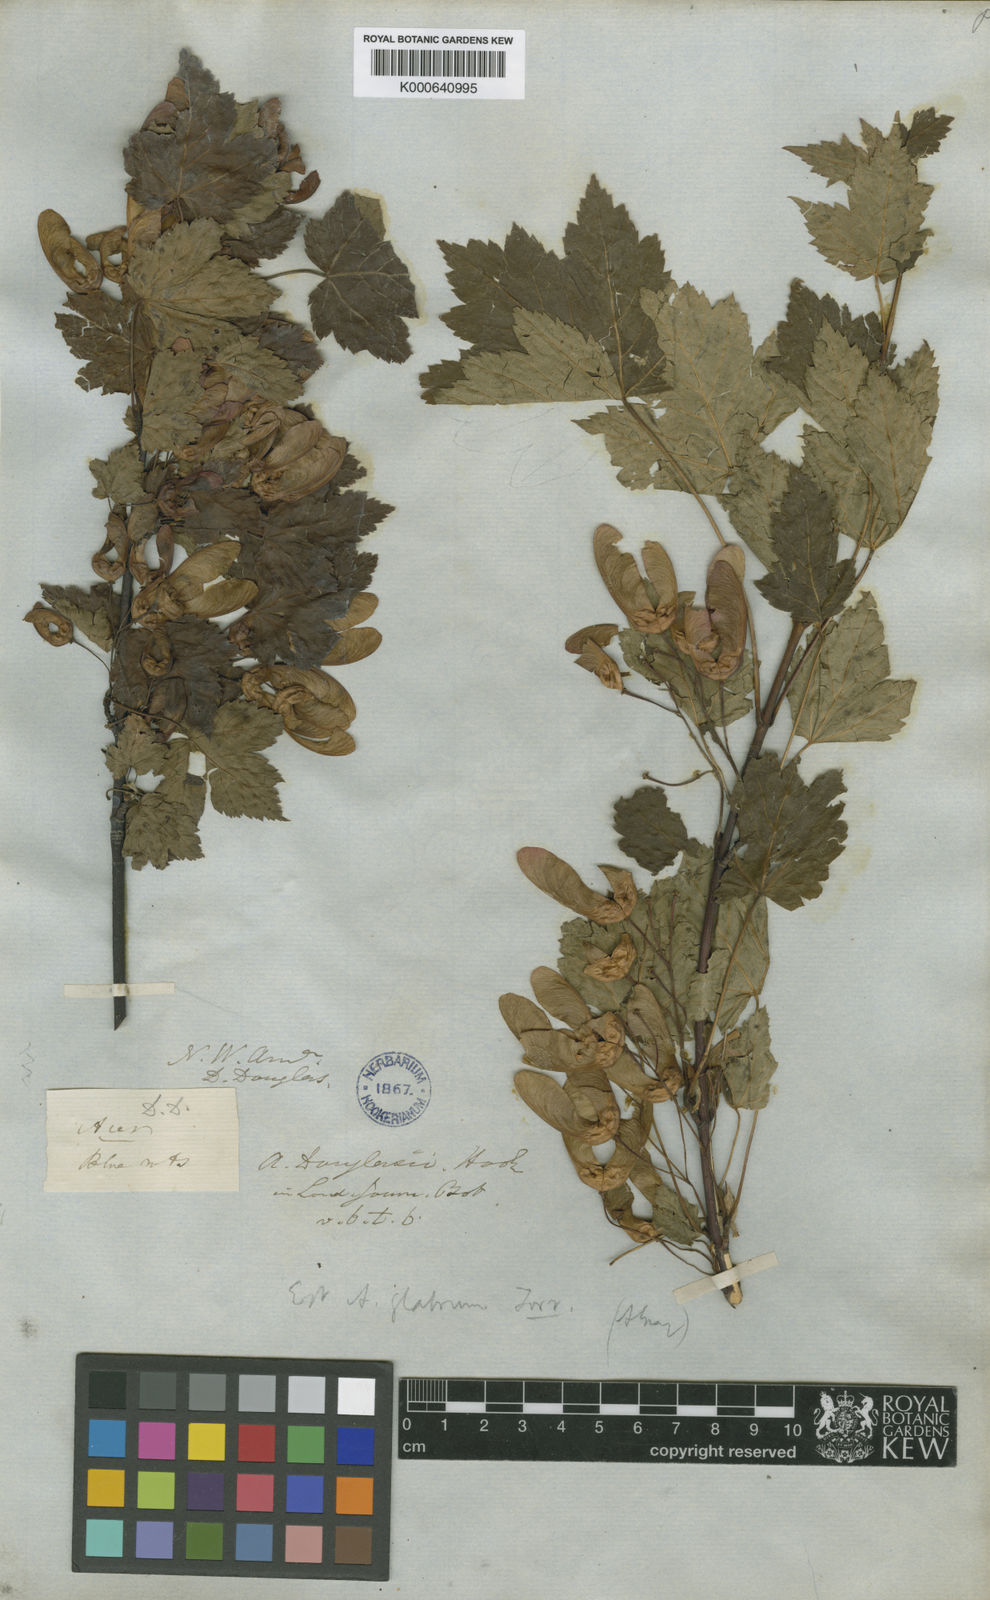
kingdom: Plantae
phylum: Tracheophyta
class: Magnoliopsida
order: Sapindales
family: Sapindaceae
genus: Acer
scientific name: Acer glabrum
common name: Rocky mountain maple
